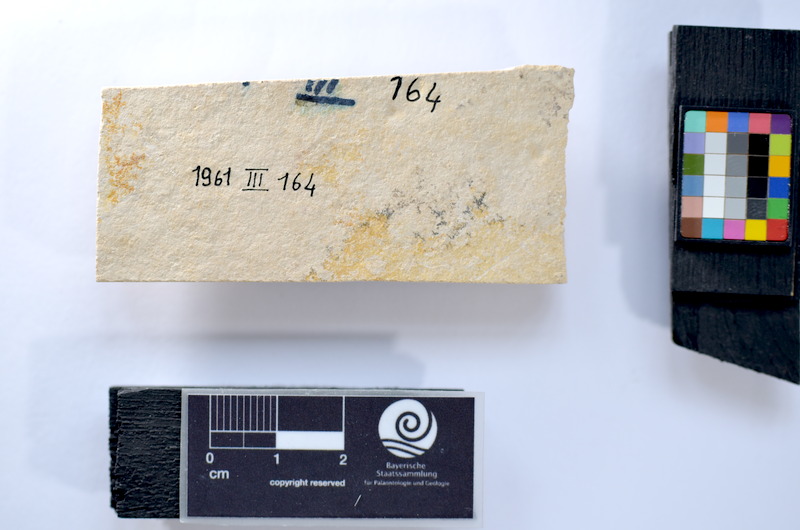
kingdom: Animalia
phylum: Chordata
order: Salmoniformes
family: Orthogonikleithridae
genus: Leptolepides
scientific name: Leptolepides
